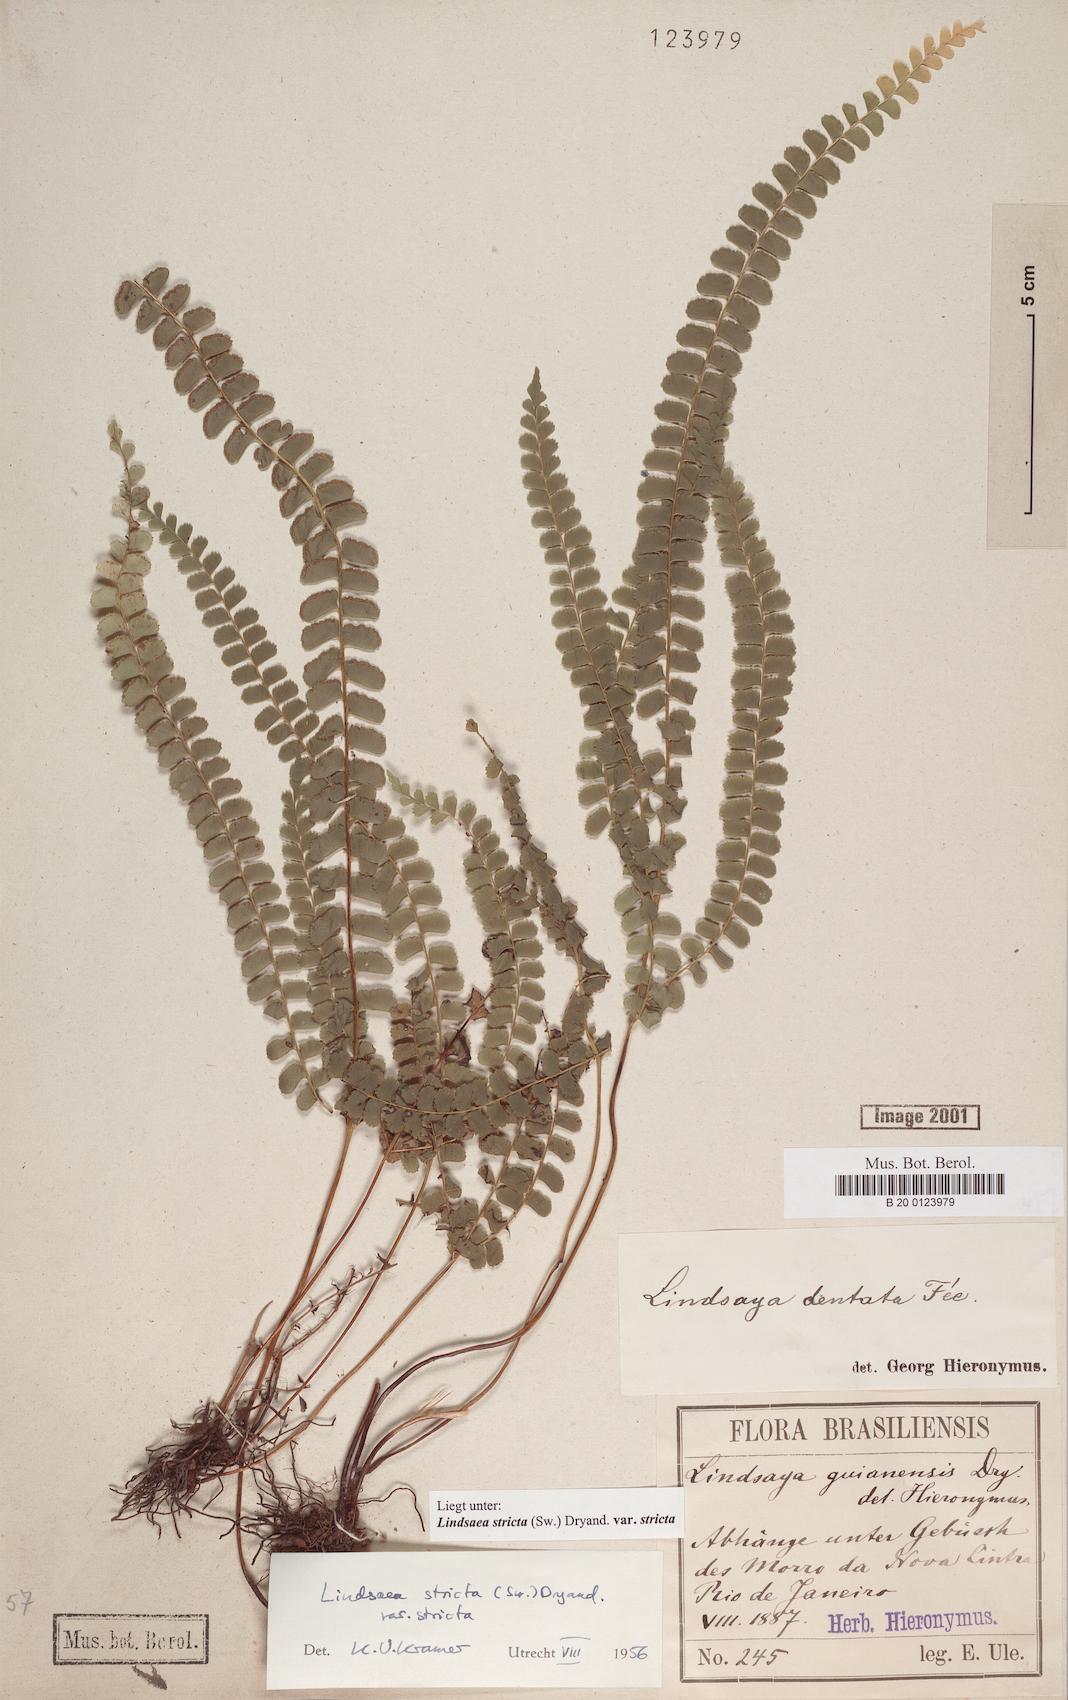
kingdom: Plantae
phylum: Tracheophyta
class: Polypodiopsida
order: Polypodiales
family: Lindsaeaceae
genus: Lindsaea
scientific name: Lindsaea stricta
